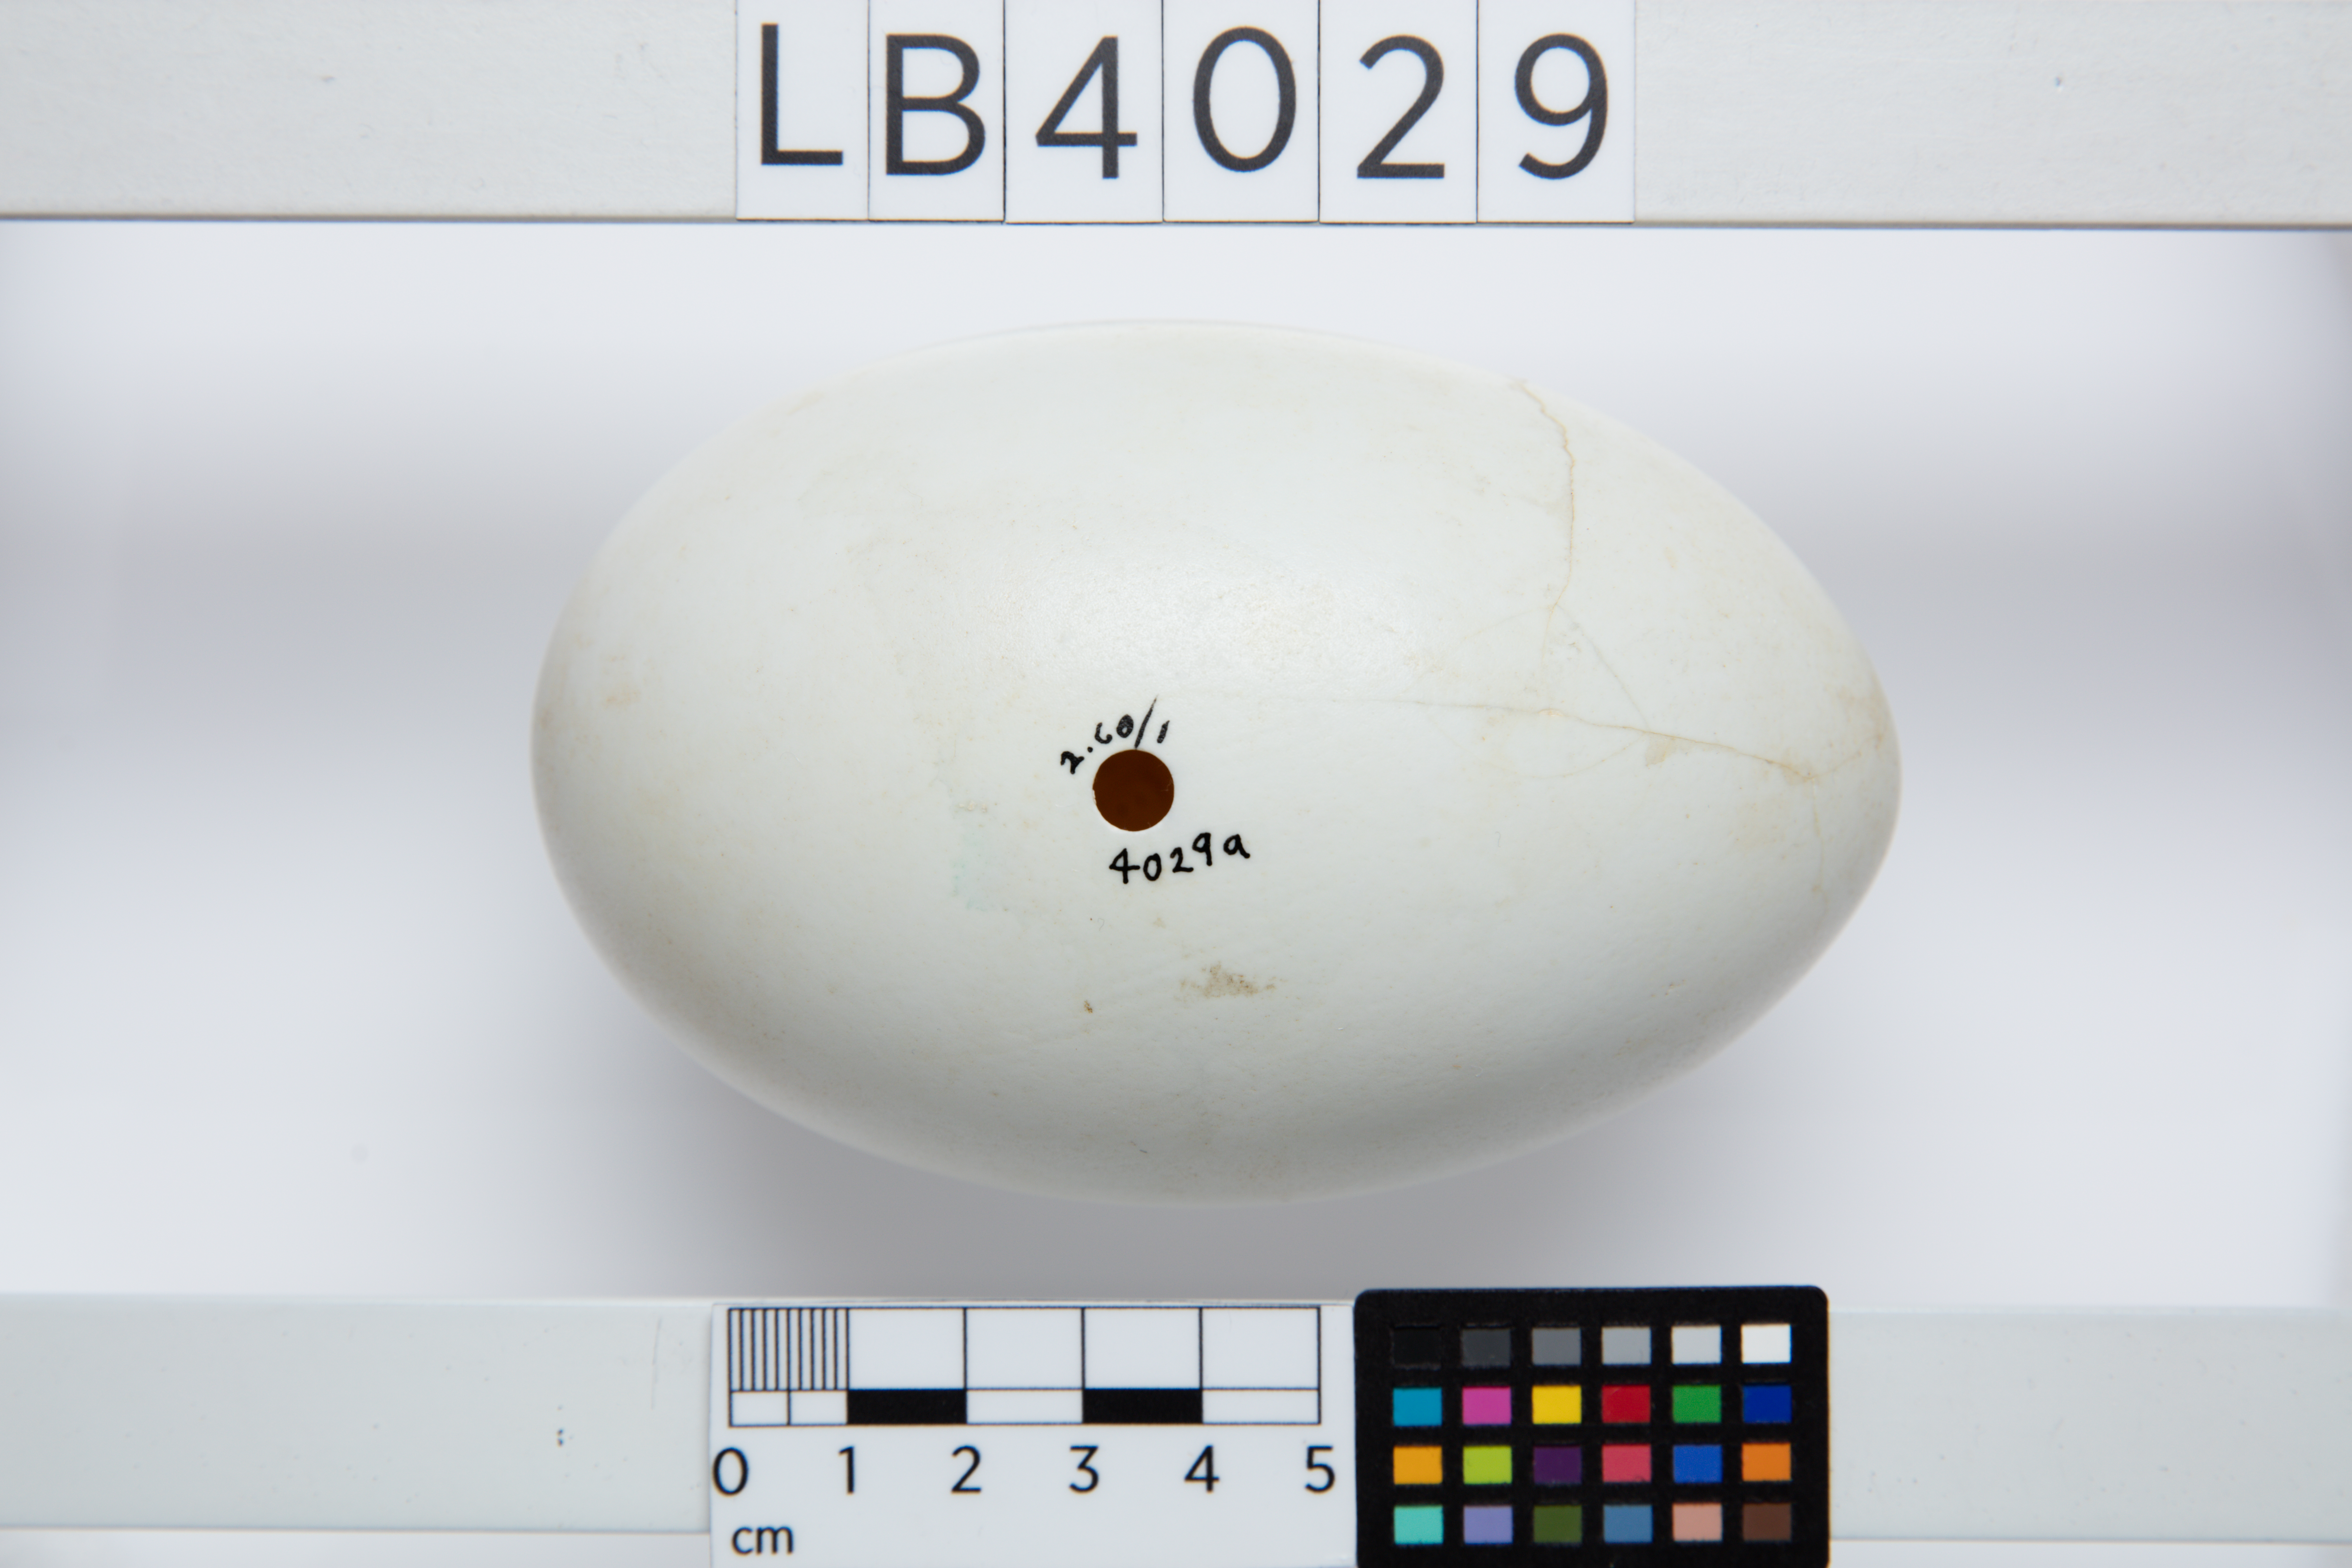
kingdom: Animalia
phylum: Chordata
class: Aves
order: Apterygiformes
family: Apterygidae
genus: Apteryx
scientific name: Apteryx mantelli
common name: North island brown kiwi
